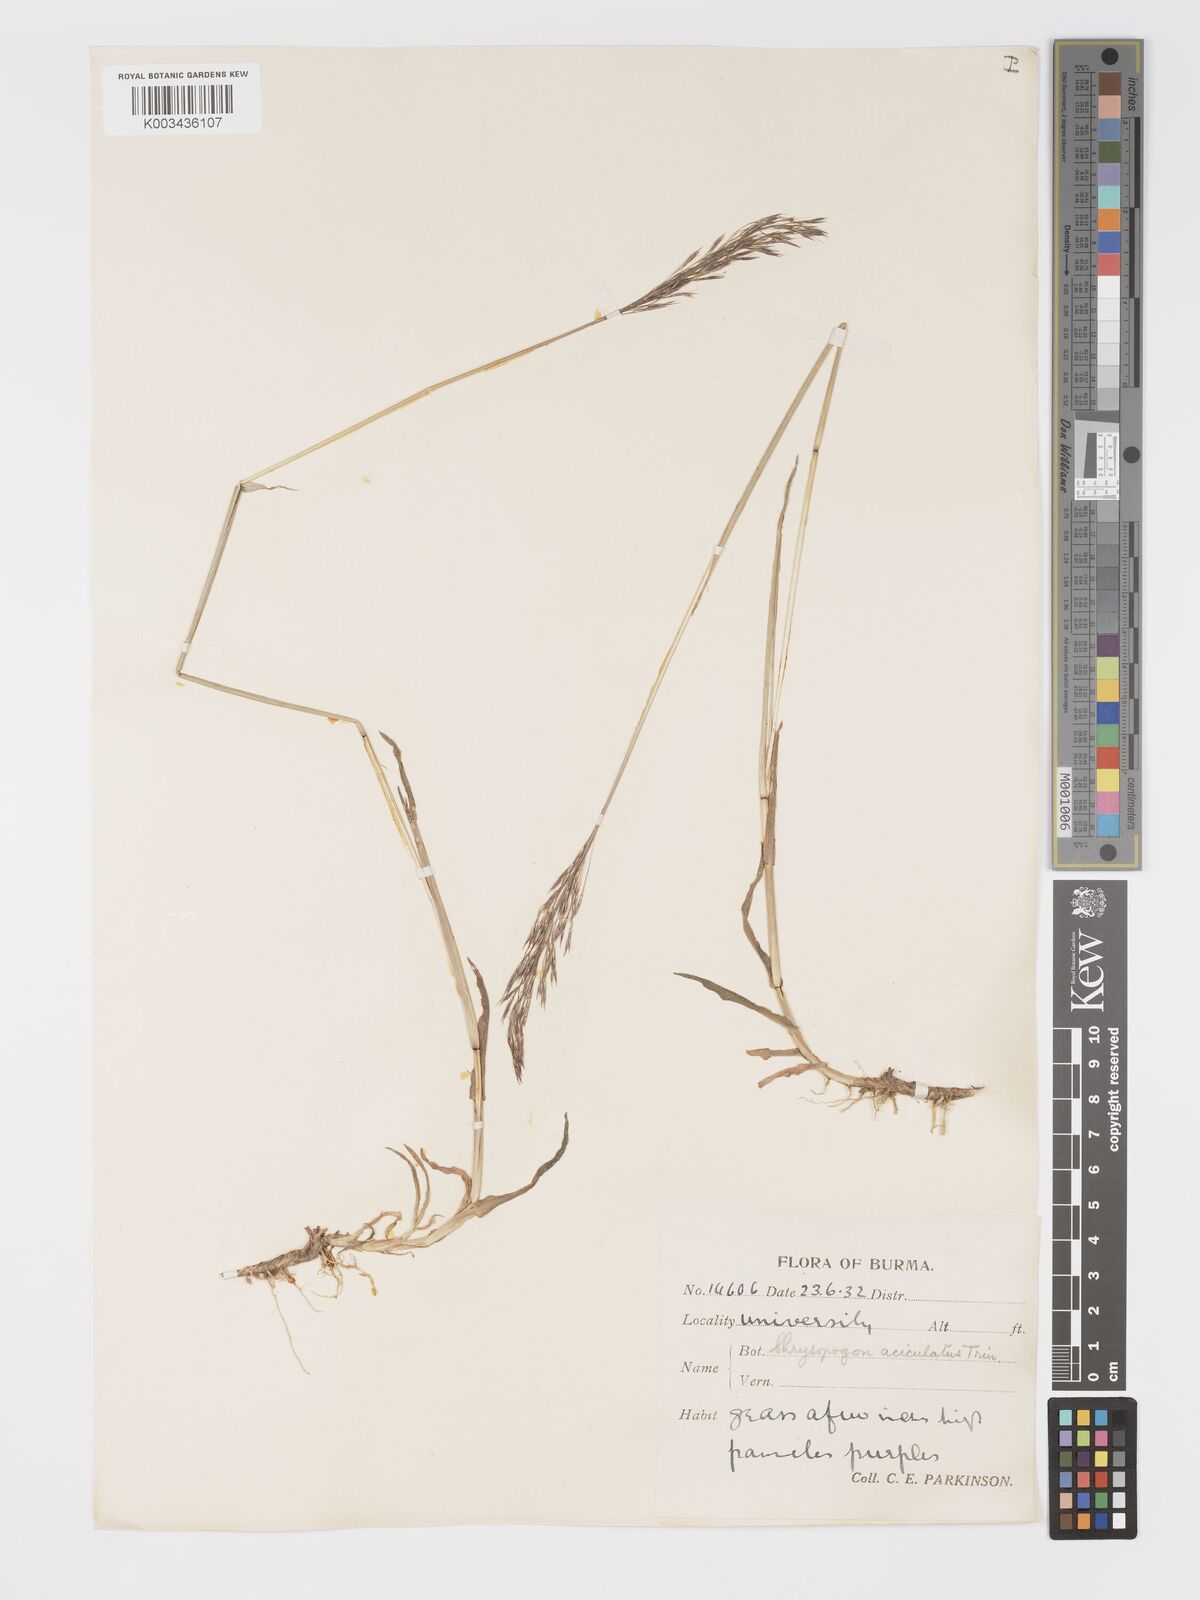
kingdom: Plantae
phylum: Tracheophyta
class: Liliopsida
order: Poales
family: Poaceae
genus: Chrysopogon
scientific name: Chrysopogon aciculatus
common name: Pilipiliula
